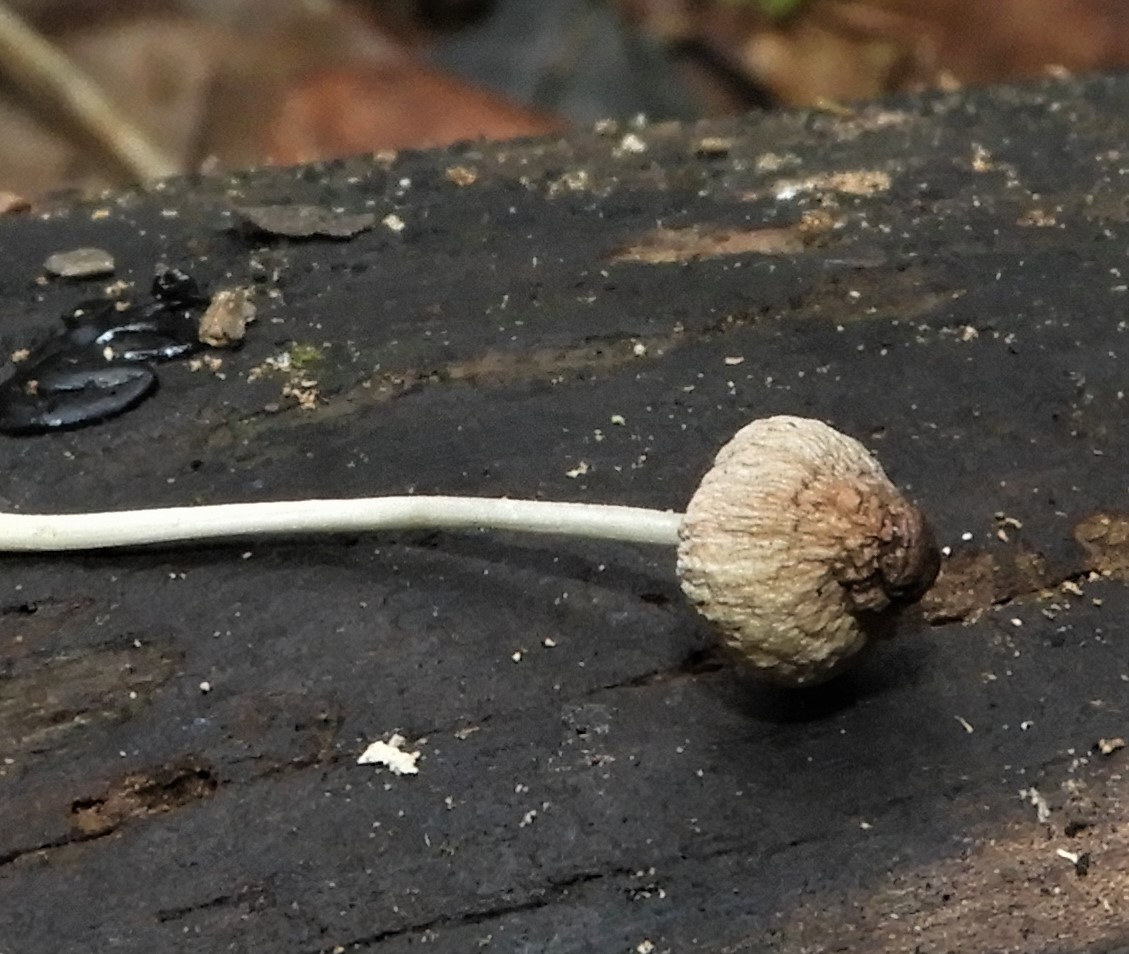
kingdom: Fungi
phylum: Basidiomycota
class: Agaricomycetes
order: Agaricales
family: Mycenaceae
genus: Mycena
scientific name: Mycena
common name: huesvamp
